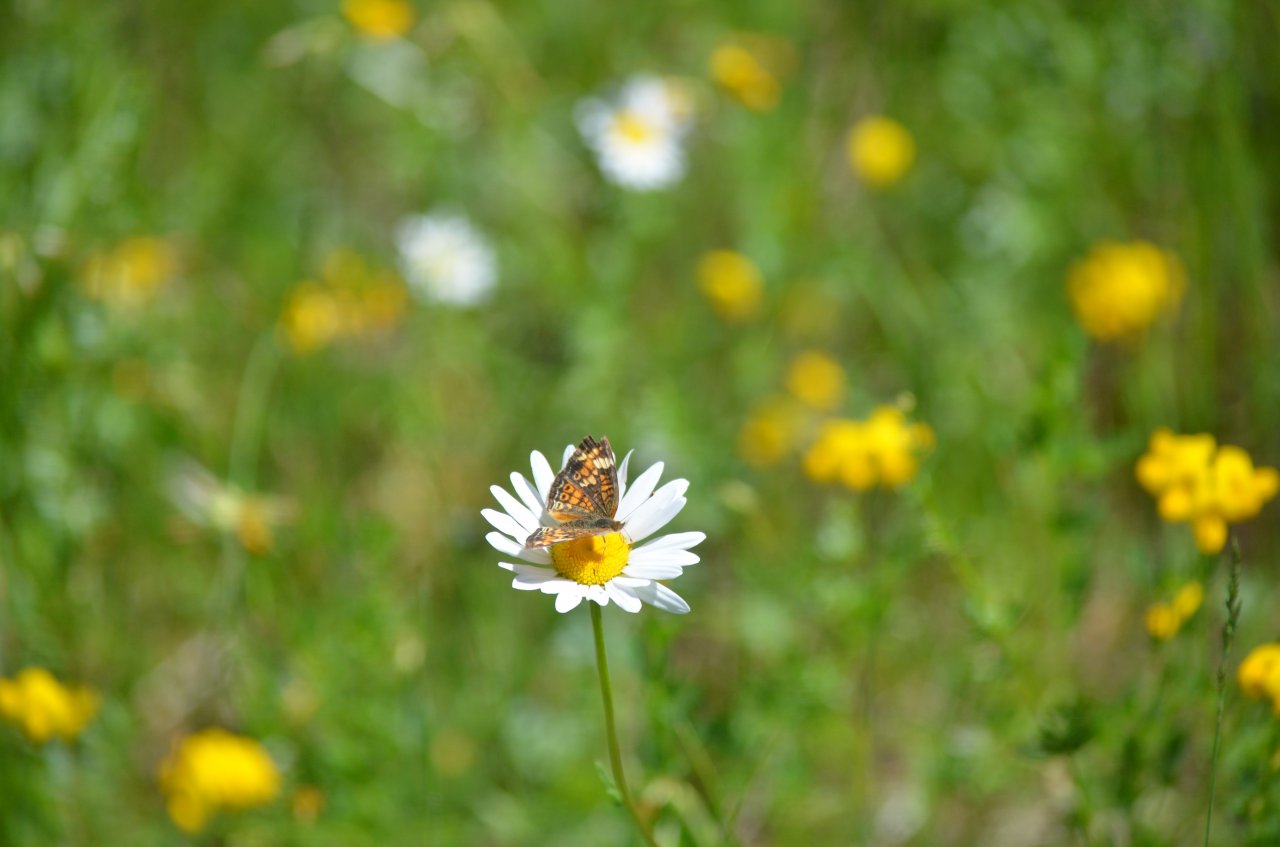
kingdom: Animalia
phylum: Arthropoda
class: Insecta
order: Lepidoptera
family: Nymphalidae
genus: Phyciodes
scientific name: Phyciodes tharos
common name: Pearl Crescent
